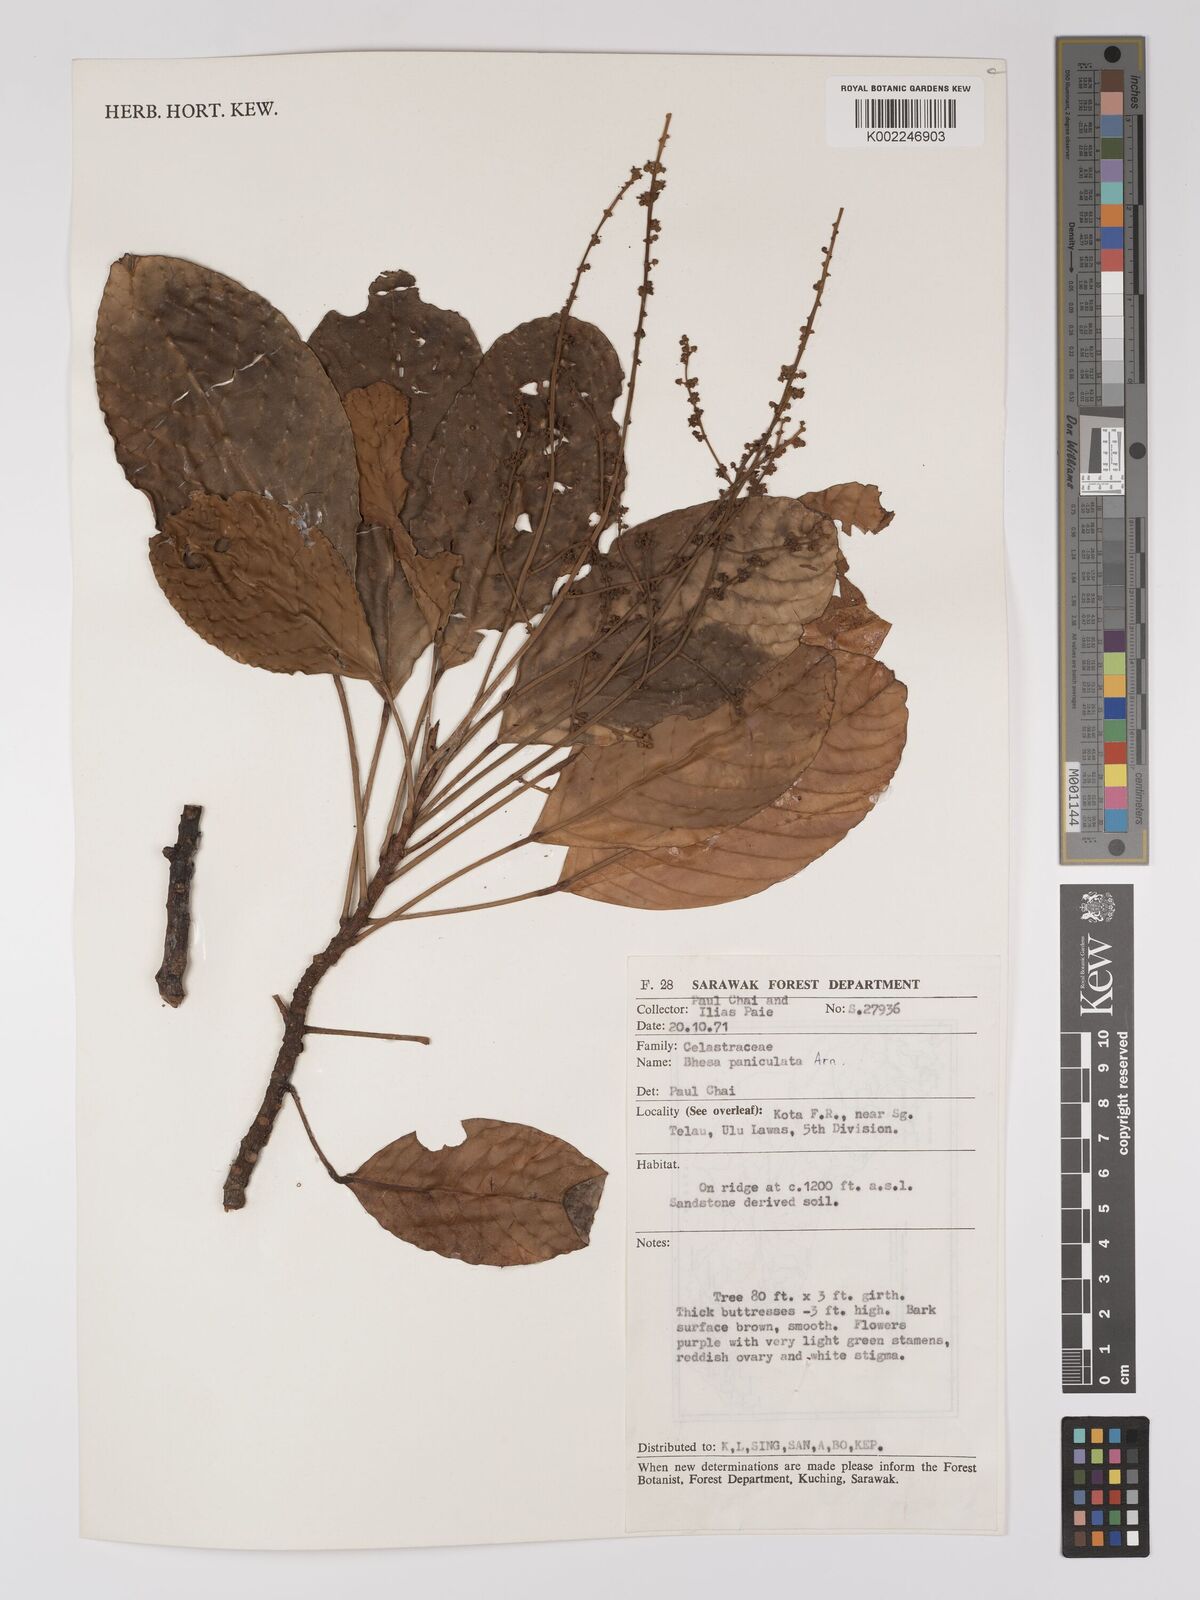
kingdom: Plantae
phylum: Tracheophyta
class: Magnoliopsida
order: Malpighiales
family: Centroplacaceae
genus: Bhesa
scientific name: Bhesa paniculata
